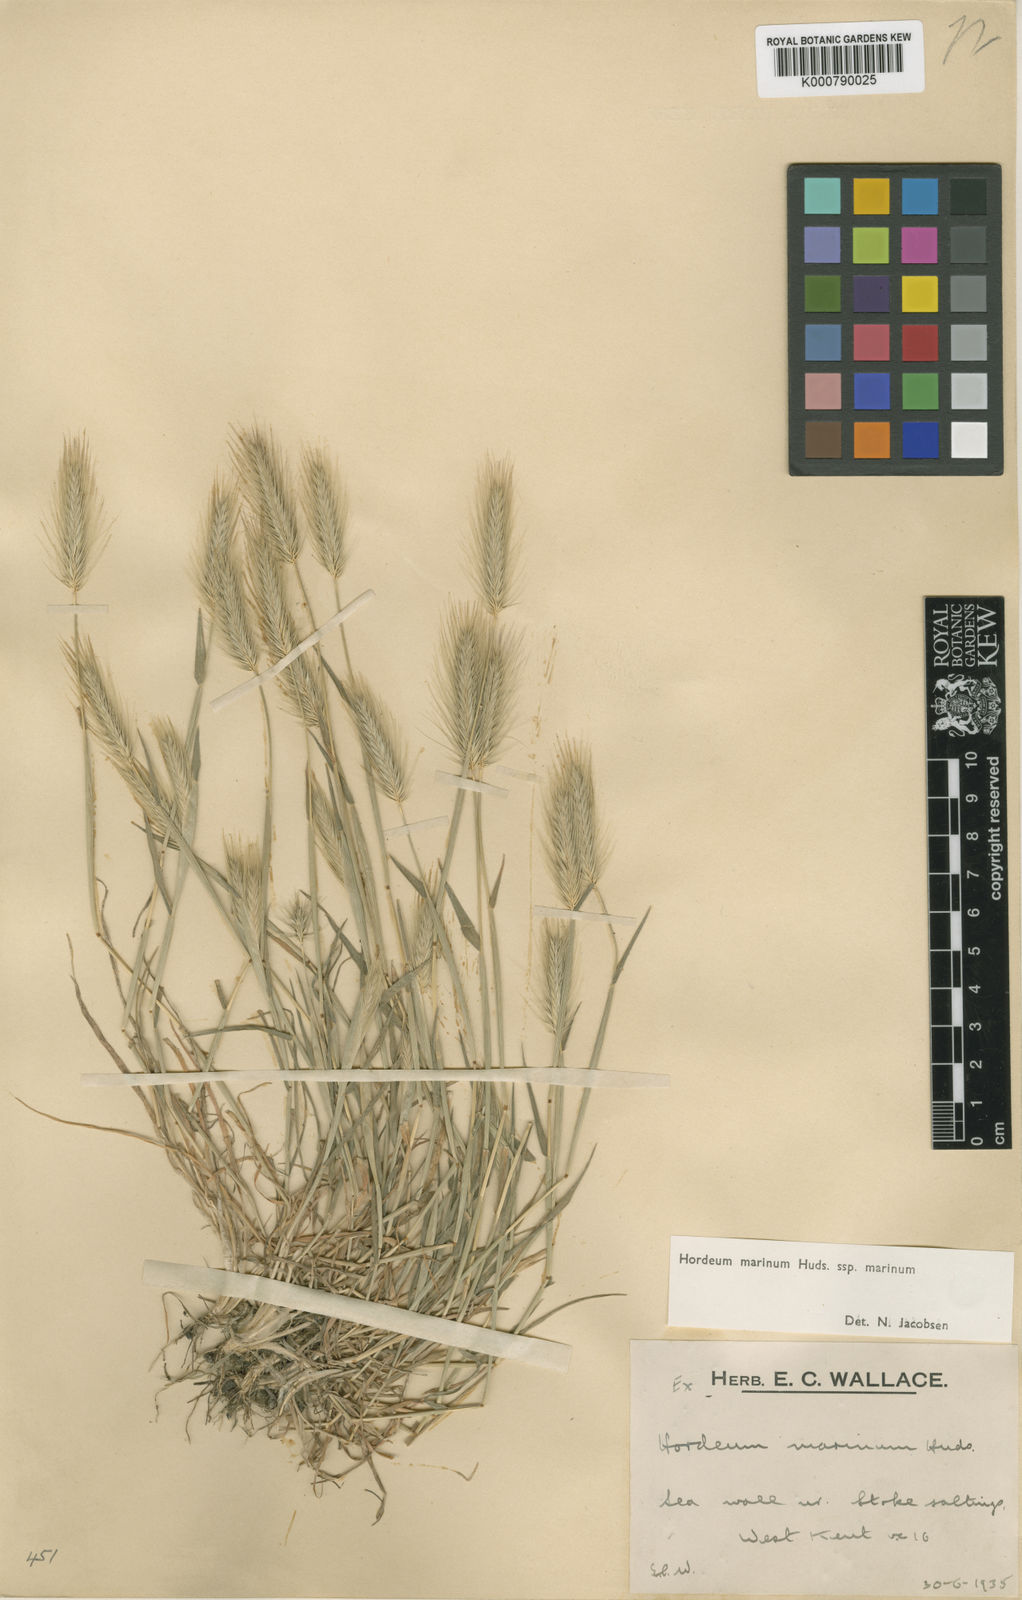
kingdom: Plantae
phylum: Tracheophyta
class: Liliopsida
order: Poales
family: Poaceae
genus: Hordeum
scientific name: Hordeum marinum
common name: Sea barley
